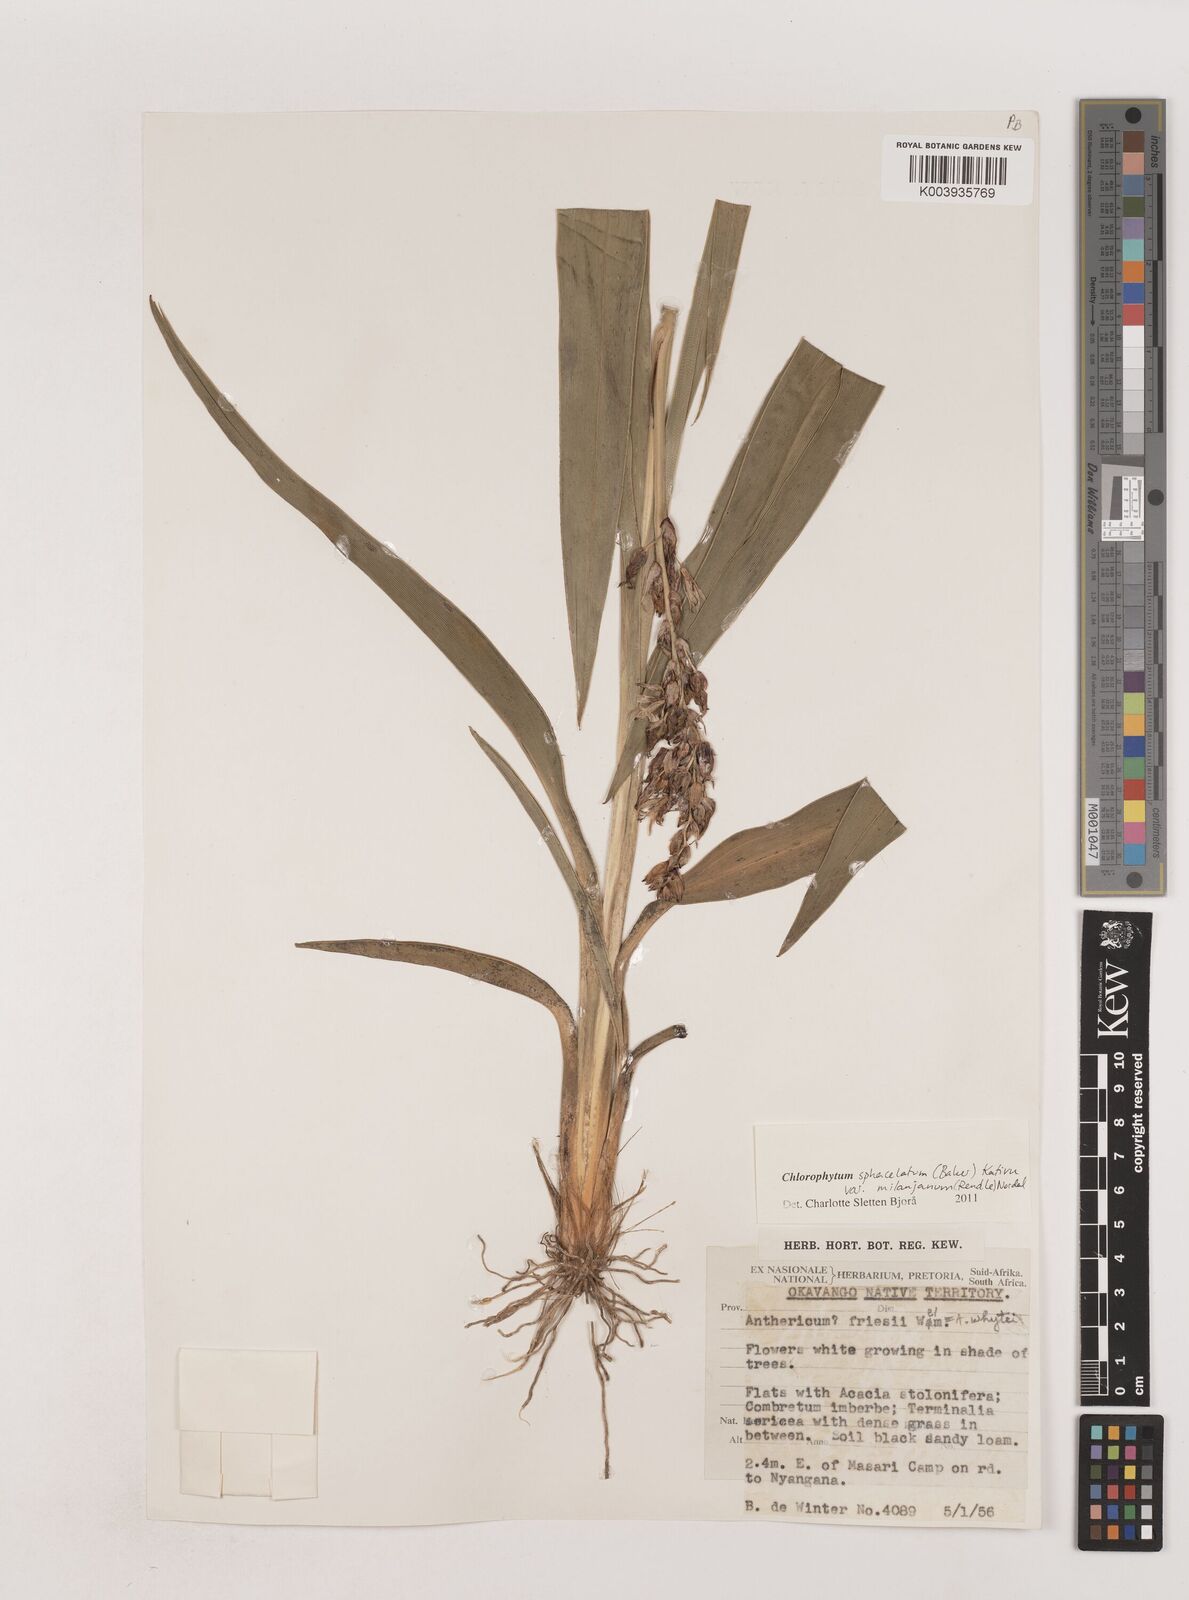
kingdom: Plantae
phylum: Tracheophyta
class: Liliopsida
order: Asparagales
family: Asparagaceae
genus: Chlorophytum
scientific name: Chlorophytum sphacelatum
